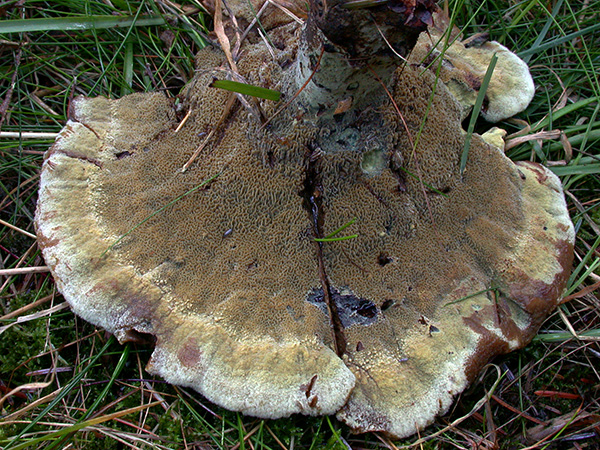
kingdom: Fungi
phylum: Basidiomycota
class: Agaricomycetes
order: Polyporales
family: Laetiporaceae
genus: Phaeolus
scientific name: Phaeolus schweinitzii
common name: brunporesvamp
